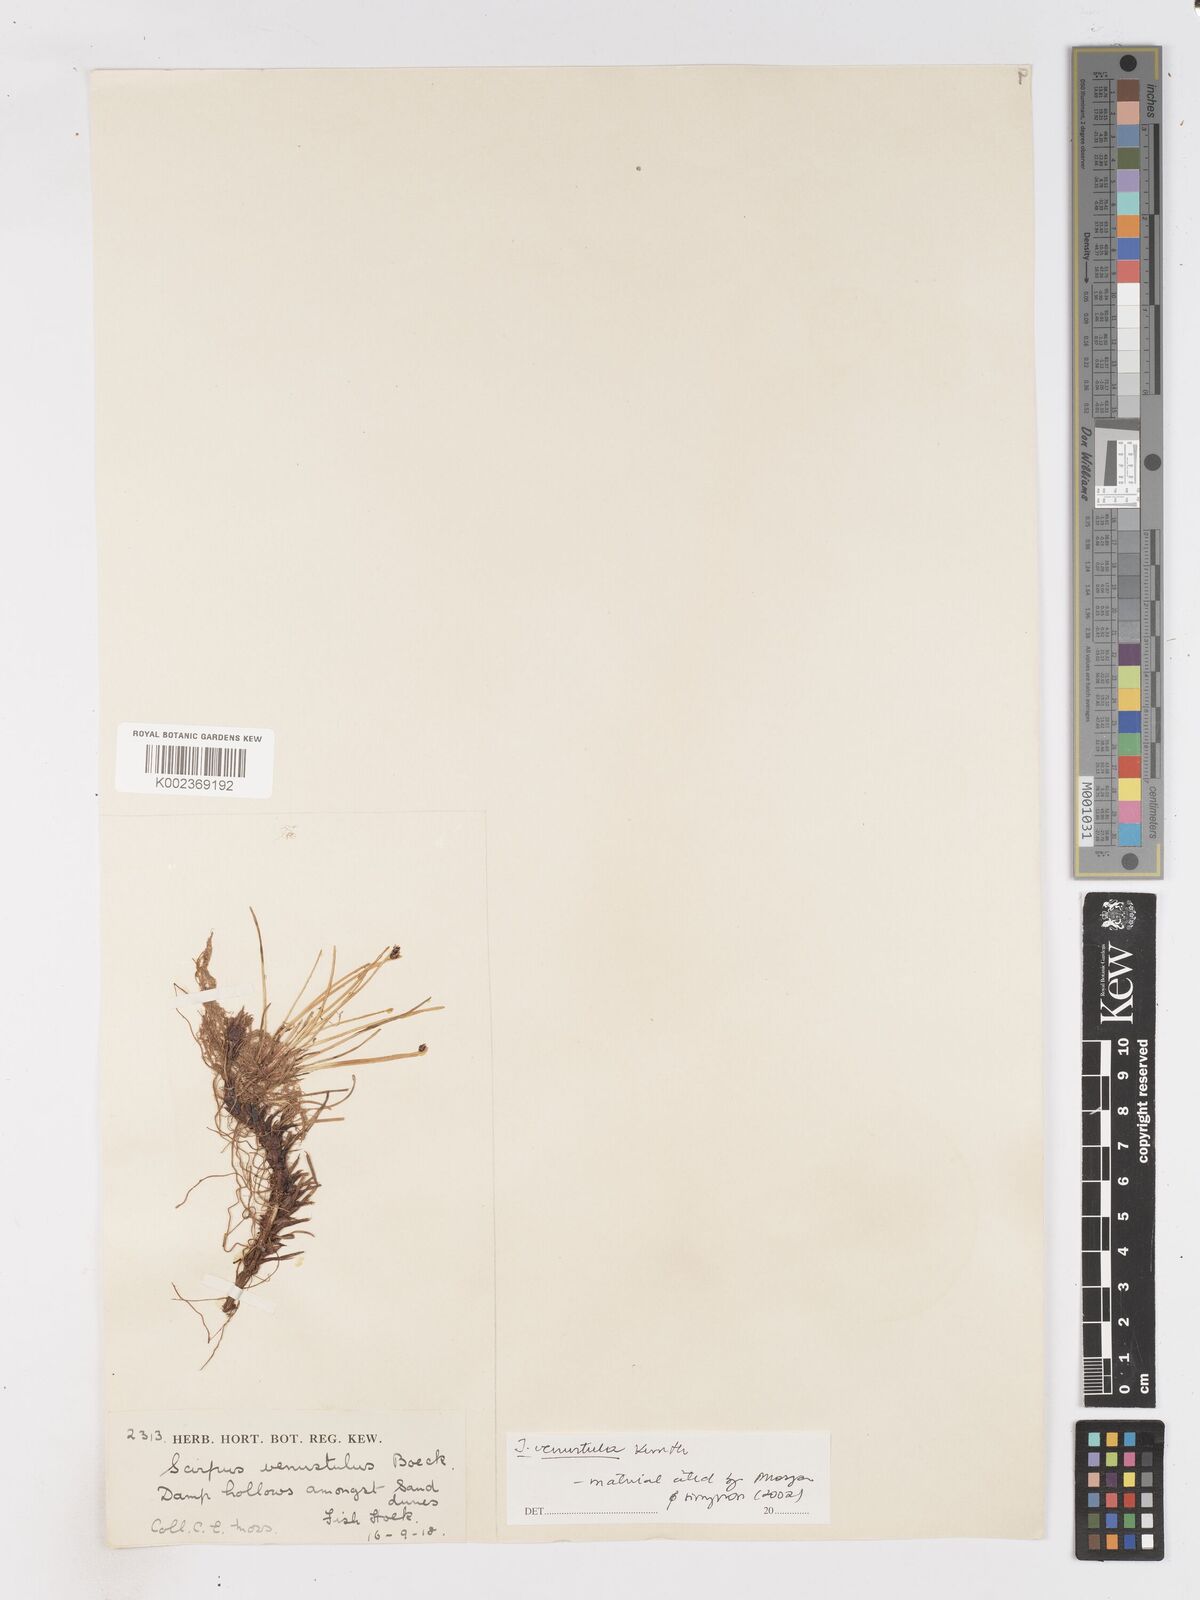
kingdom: Plantae
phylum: Tracheophyta
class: Liliopsida
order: Poales
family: Cyperaceae
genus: Isolepis
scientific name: Isolepis venustula
